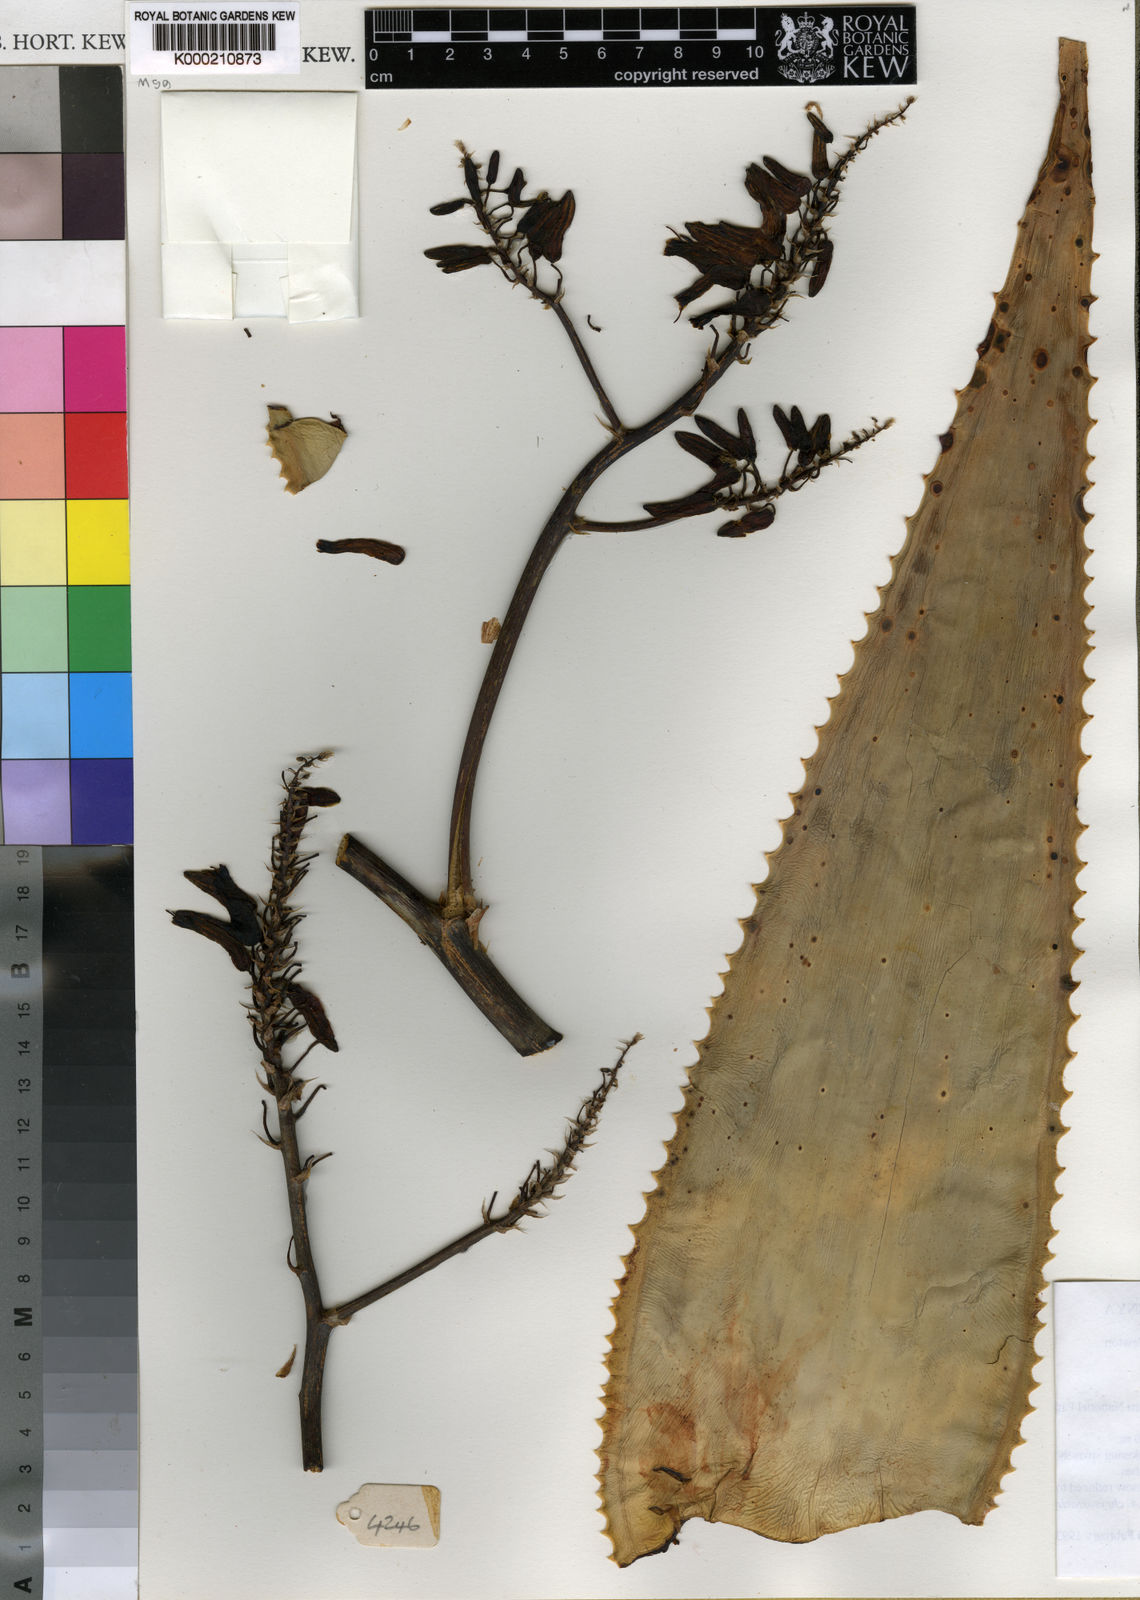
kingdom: Plantae
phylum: Tracheophyta
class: Liliopsida
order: Asparagales
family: Asphodelaceae
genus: Aloe
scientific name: Aloe chrysostachys
